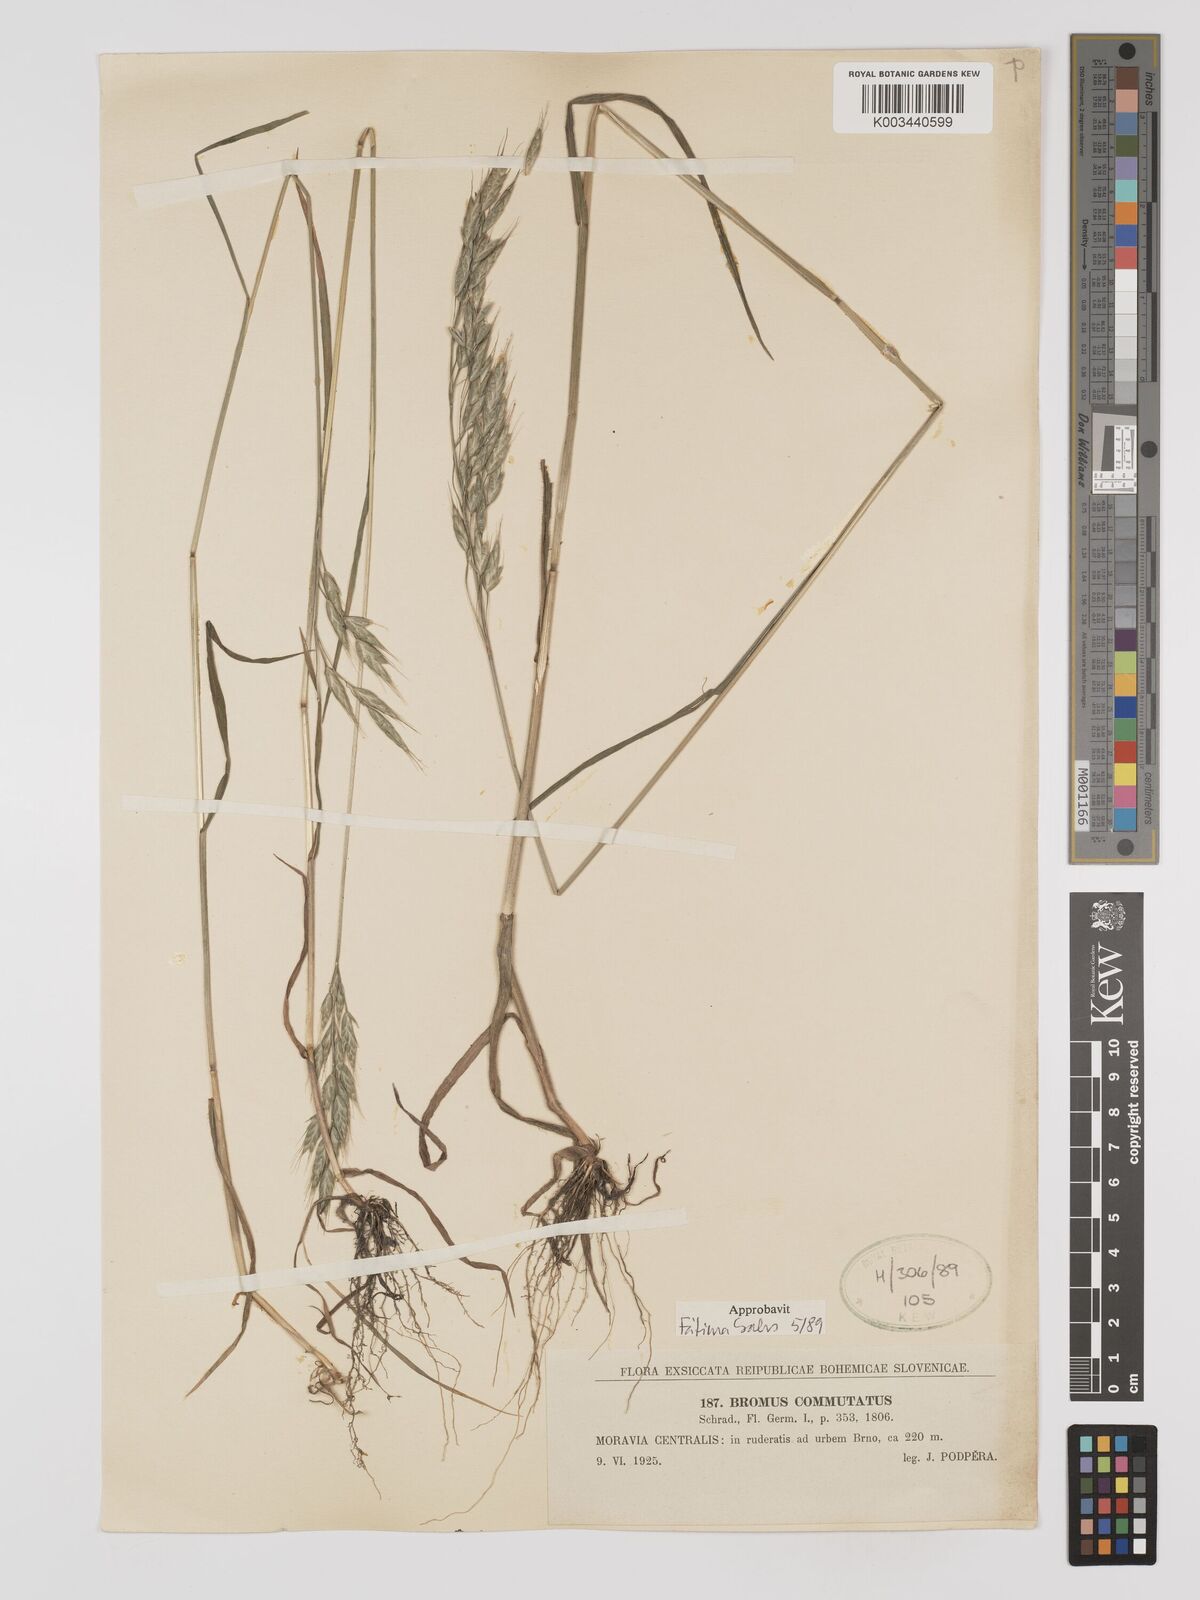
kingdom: Plantae
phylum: Tracheophyta
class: Liliopsida
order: Poales
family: Poaceae
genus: Bromus
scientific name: Bromus racemosus
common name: Bald brome
